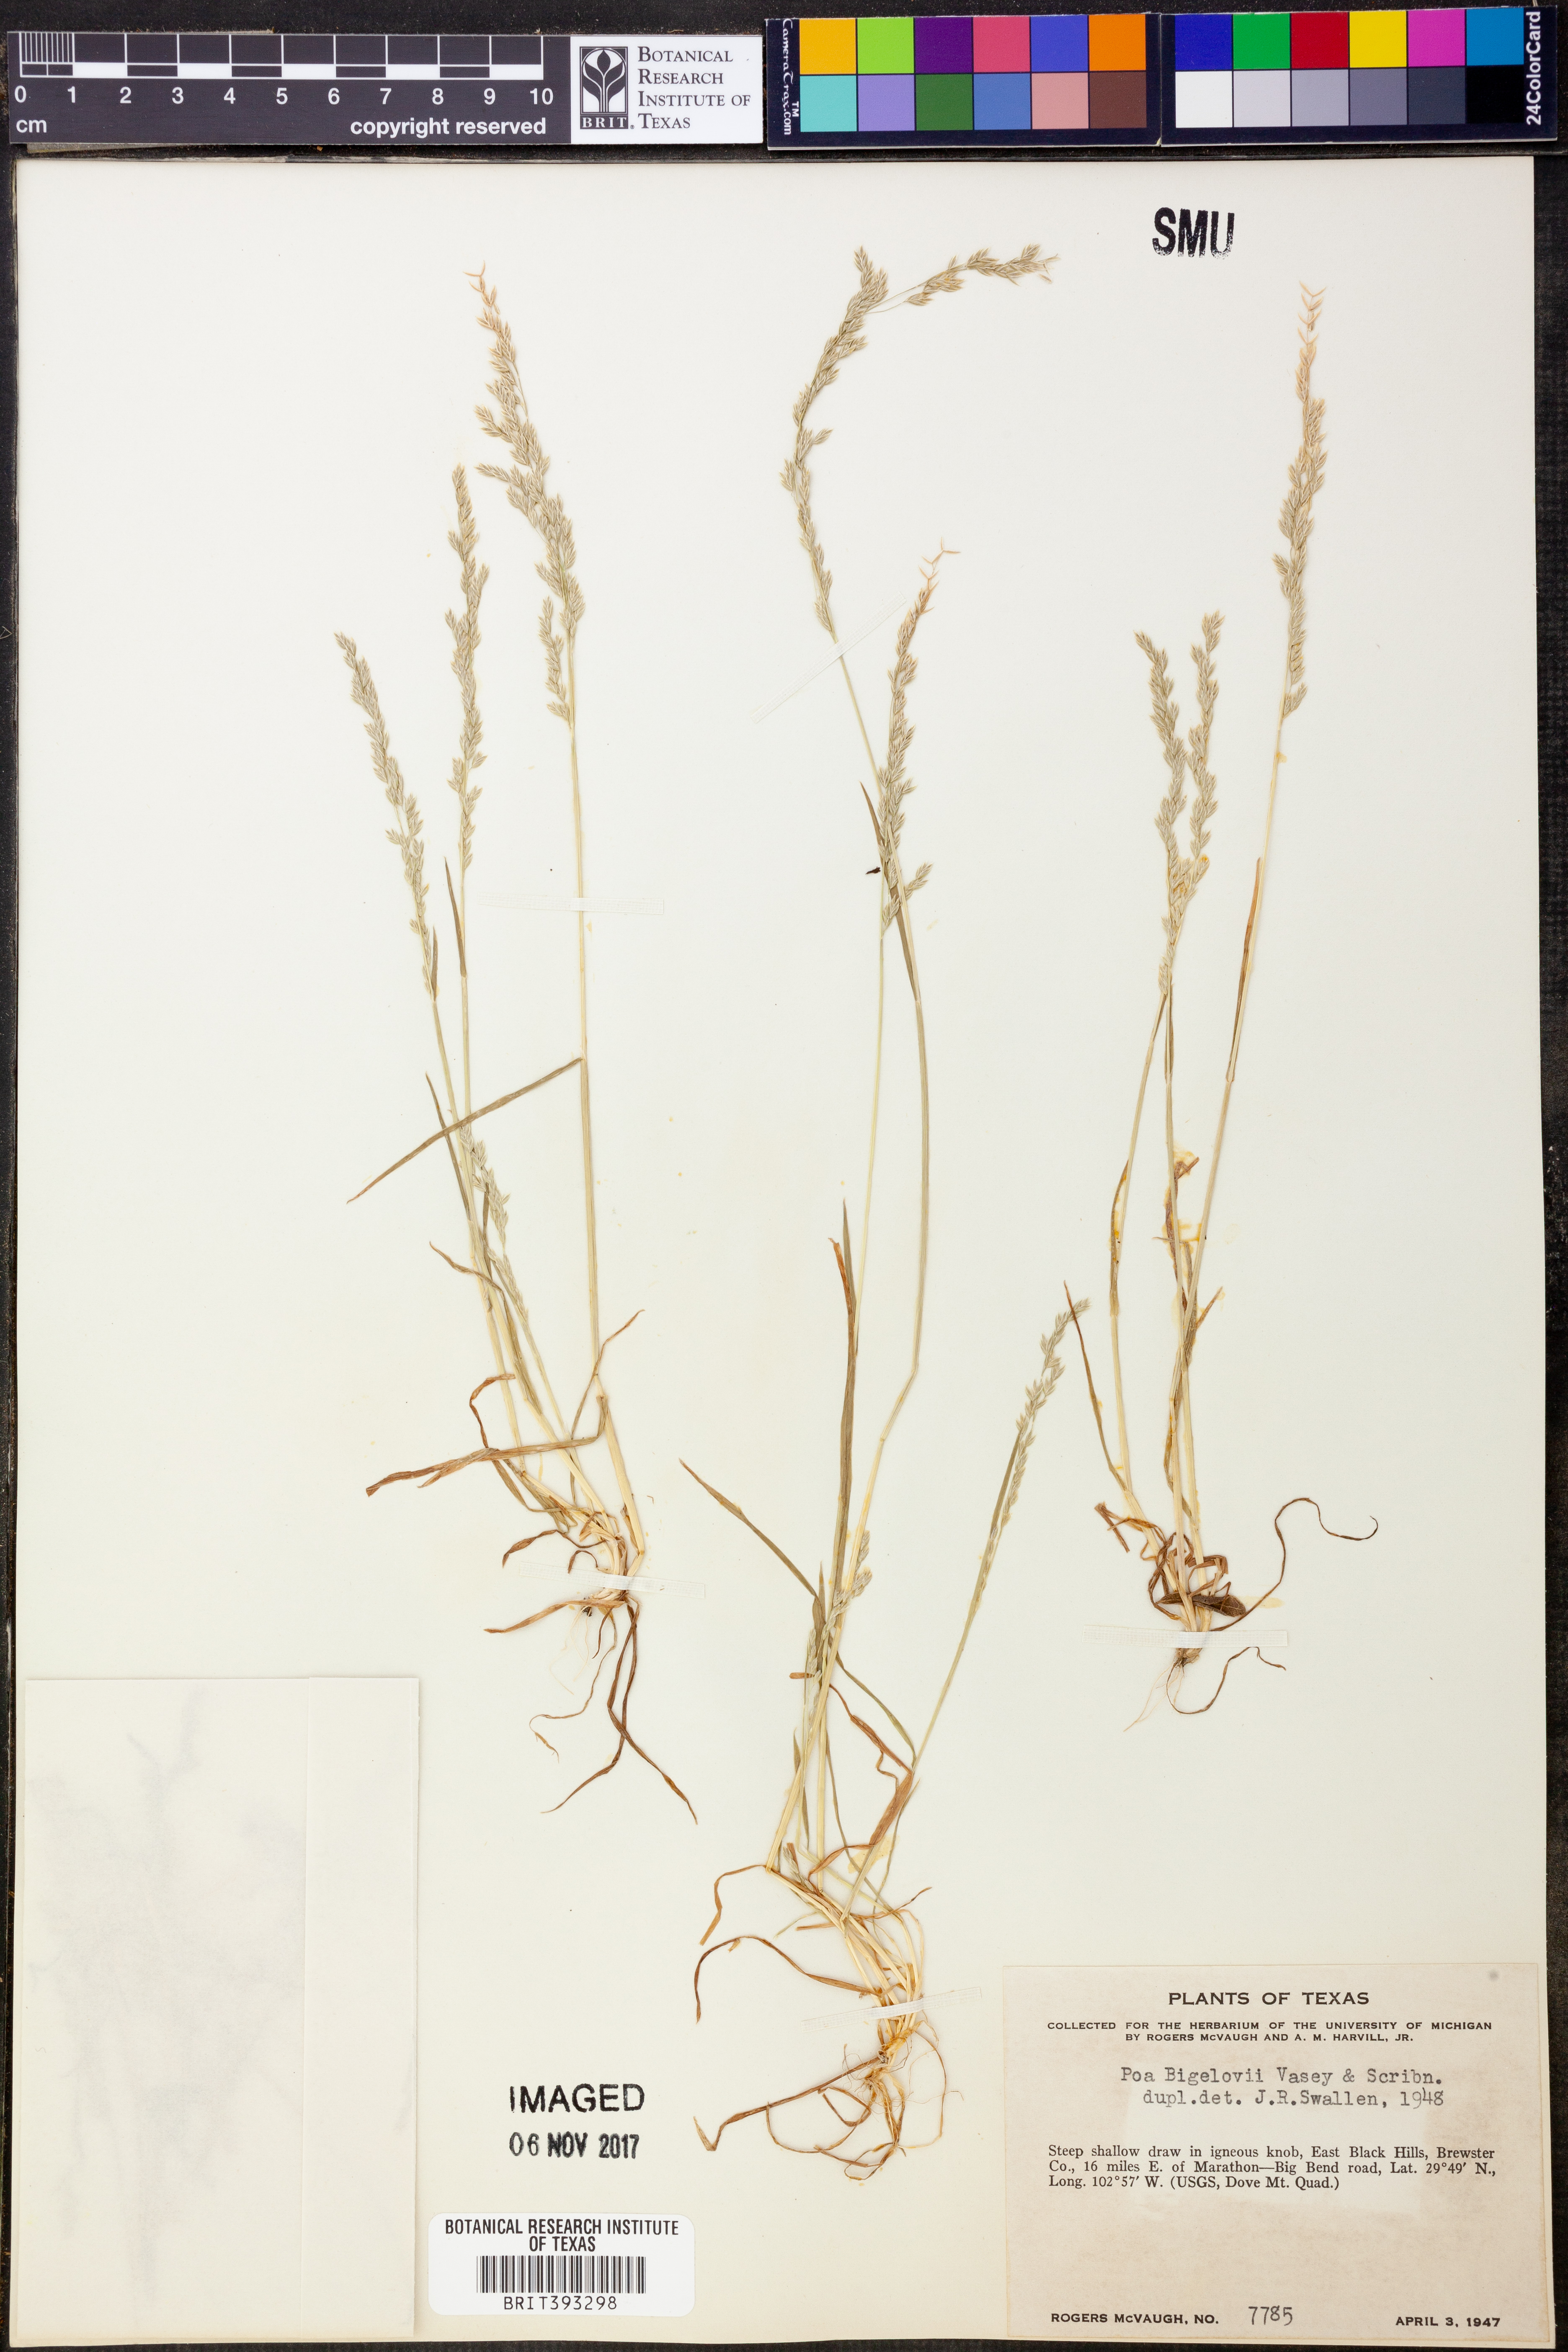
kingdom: Plantae
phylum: Tracheophyta
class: Liliopsida
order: Poales
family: Poaceae
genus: Poa
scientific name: Poa bigelovii
